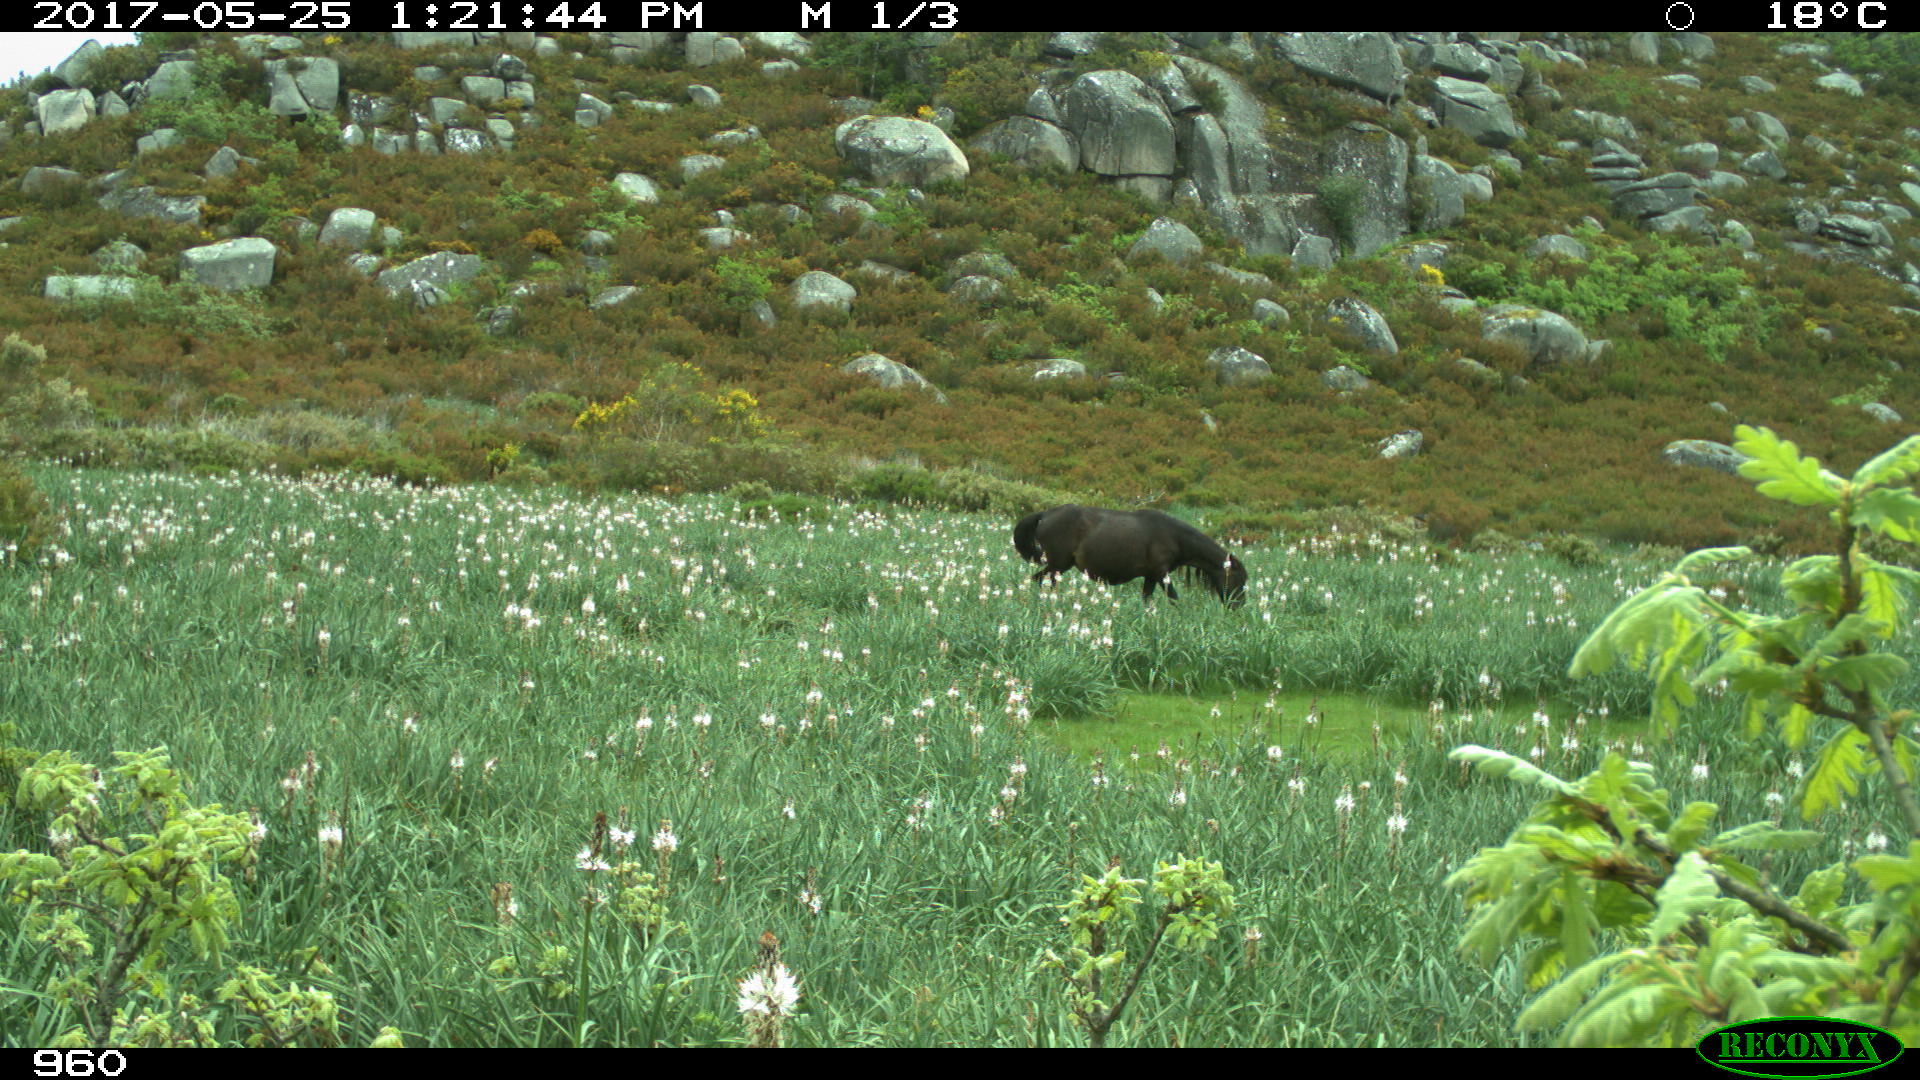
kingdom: Animalia
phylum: Chordata
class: Mammalia
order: Perissodactyla
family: Equidae
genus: Equus
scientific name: Equus caballus
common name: Horse
